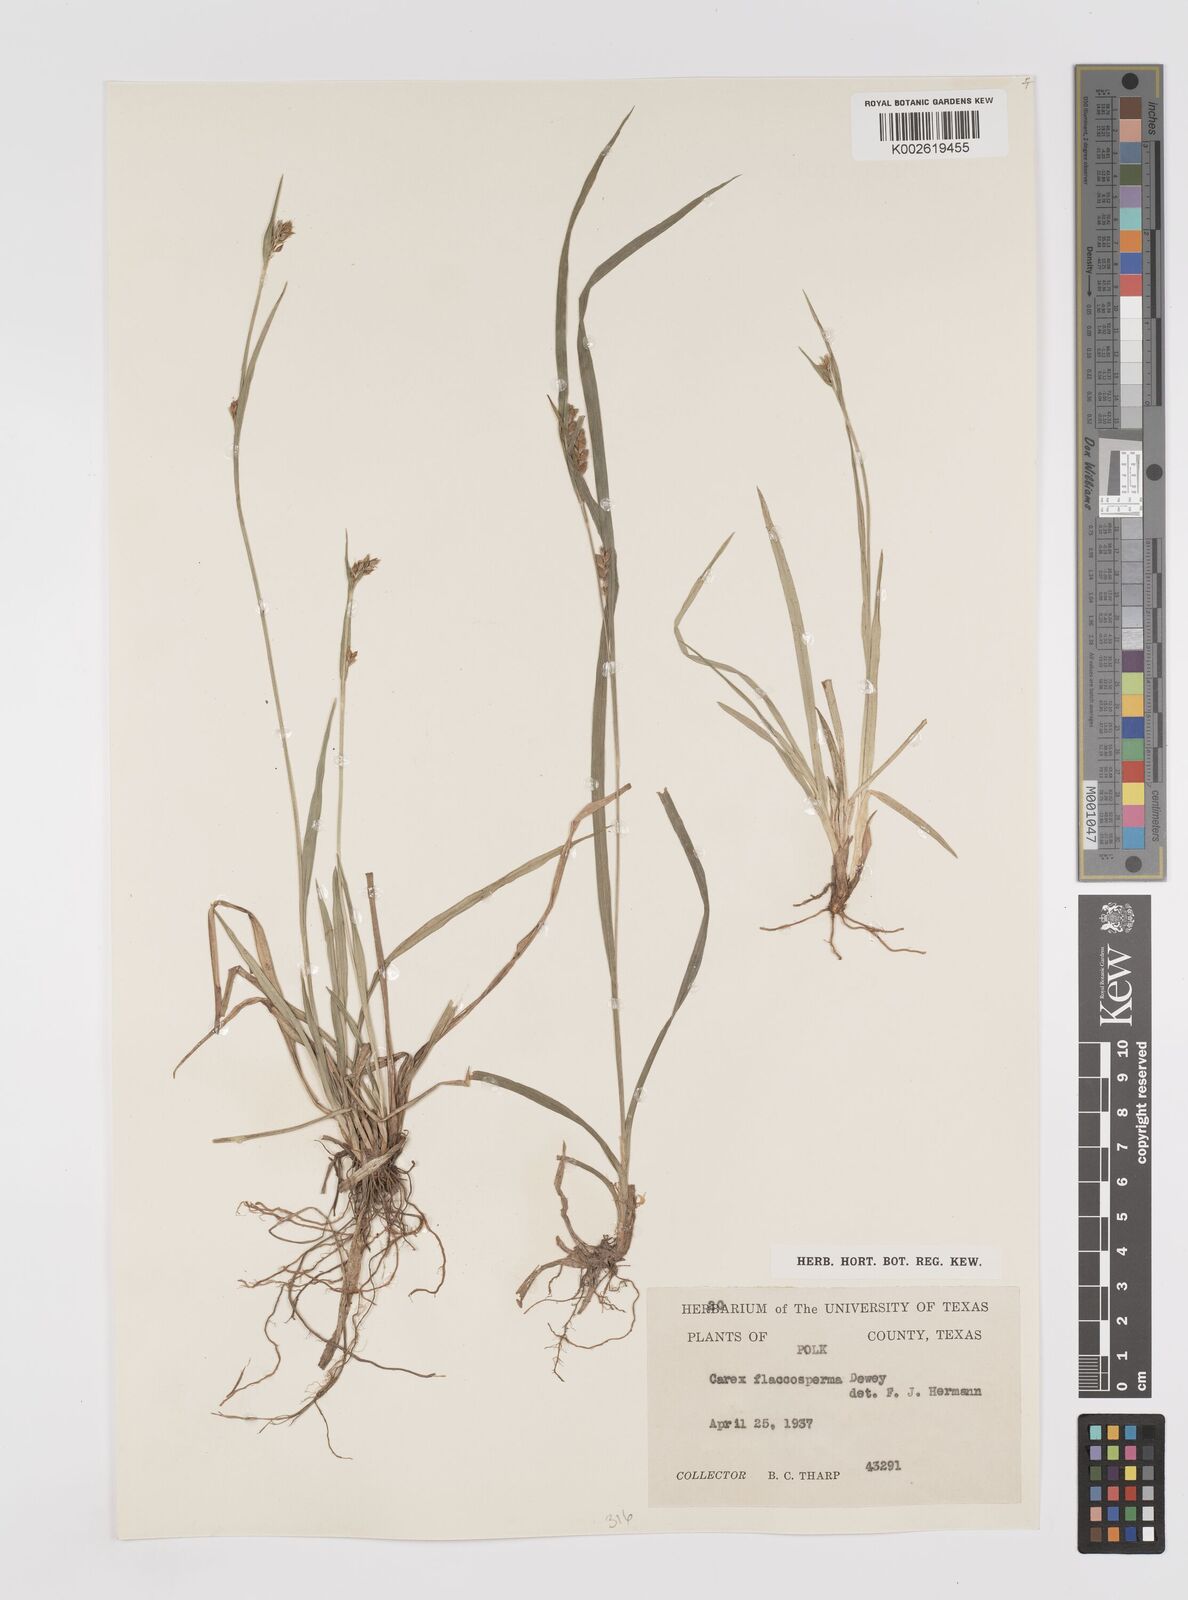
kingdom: Plantae
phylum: Tracheophyta
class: Liliopsida
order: Poales
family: Cyperaceae
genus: Carex
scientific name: Carex flaccosperma
